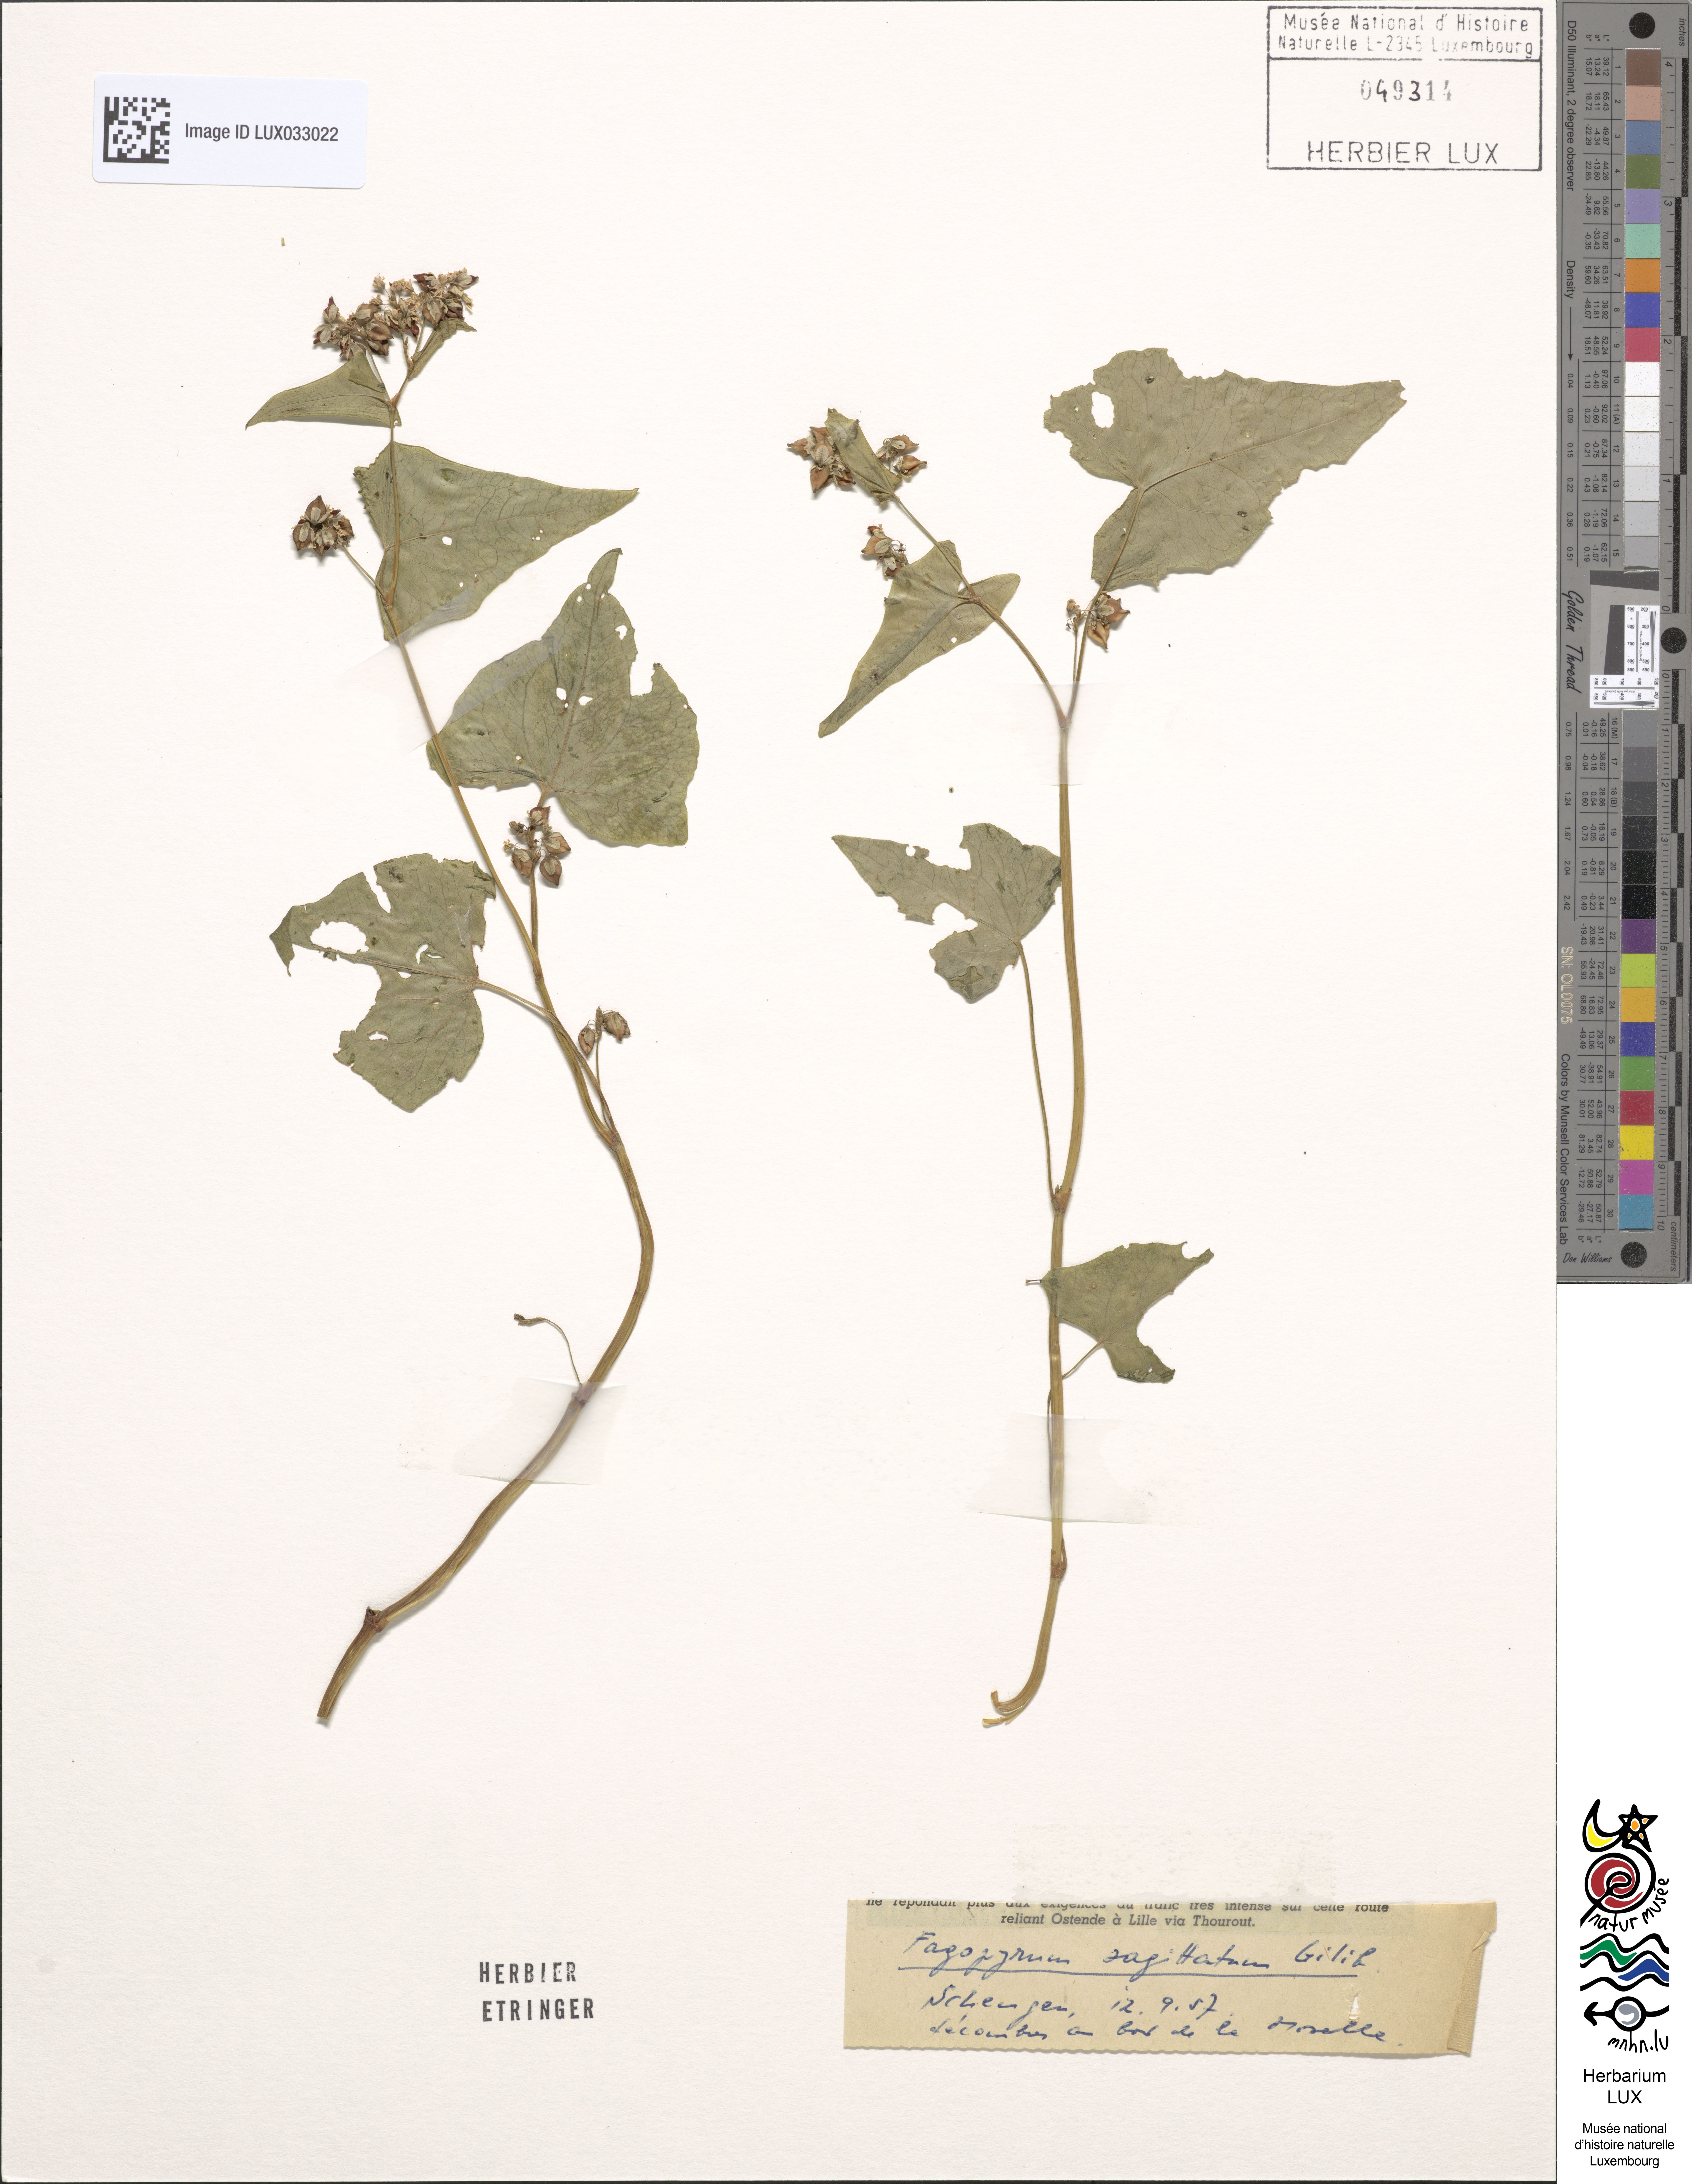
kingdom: Plantae
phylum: Tracheophyta
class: Magnoliopsida
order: Caryophyllales
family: Polygonaceae
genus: Fagopyrum
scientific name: Fagopyrum esculentum
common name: Buckwheat
